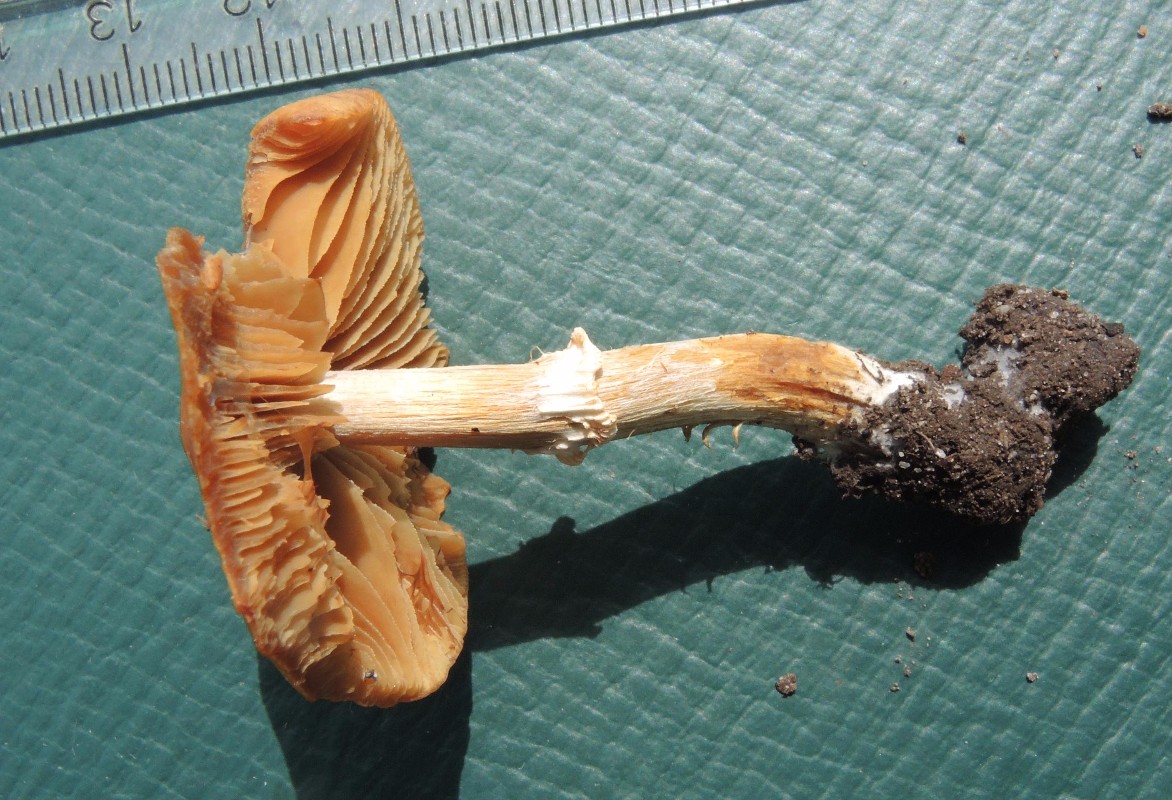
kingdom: Fungi
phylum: Basidiomycota
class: Agaricomycetes
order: Agaricales
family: Bolbitiaceae
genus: Conocybe
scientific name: Conocybe aporos
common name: tidlig dansehat
